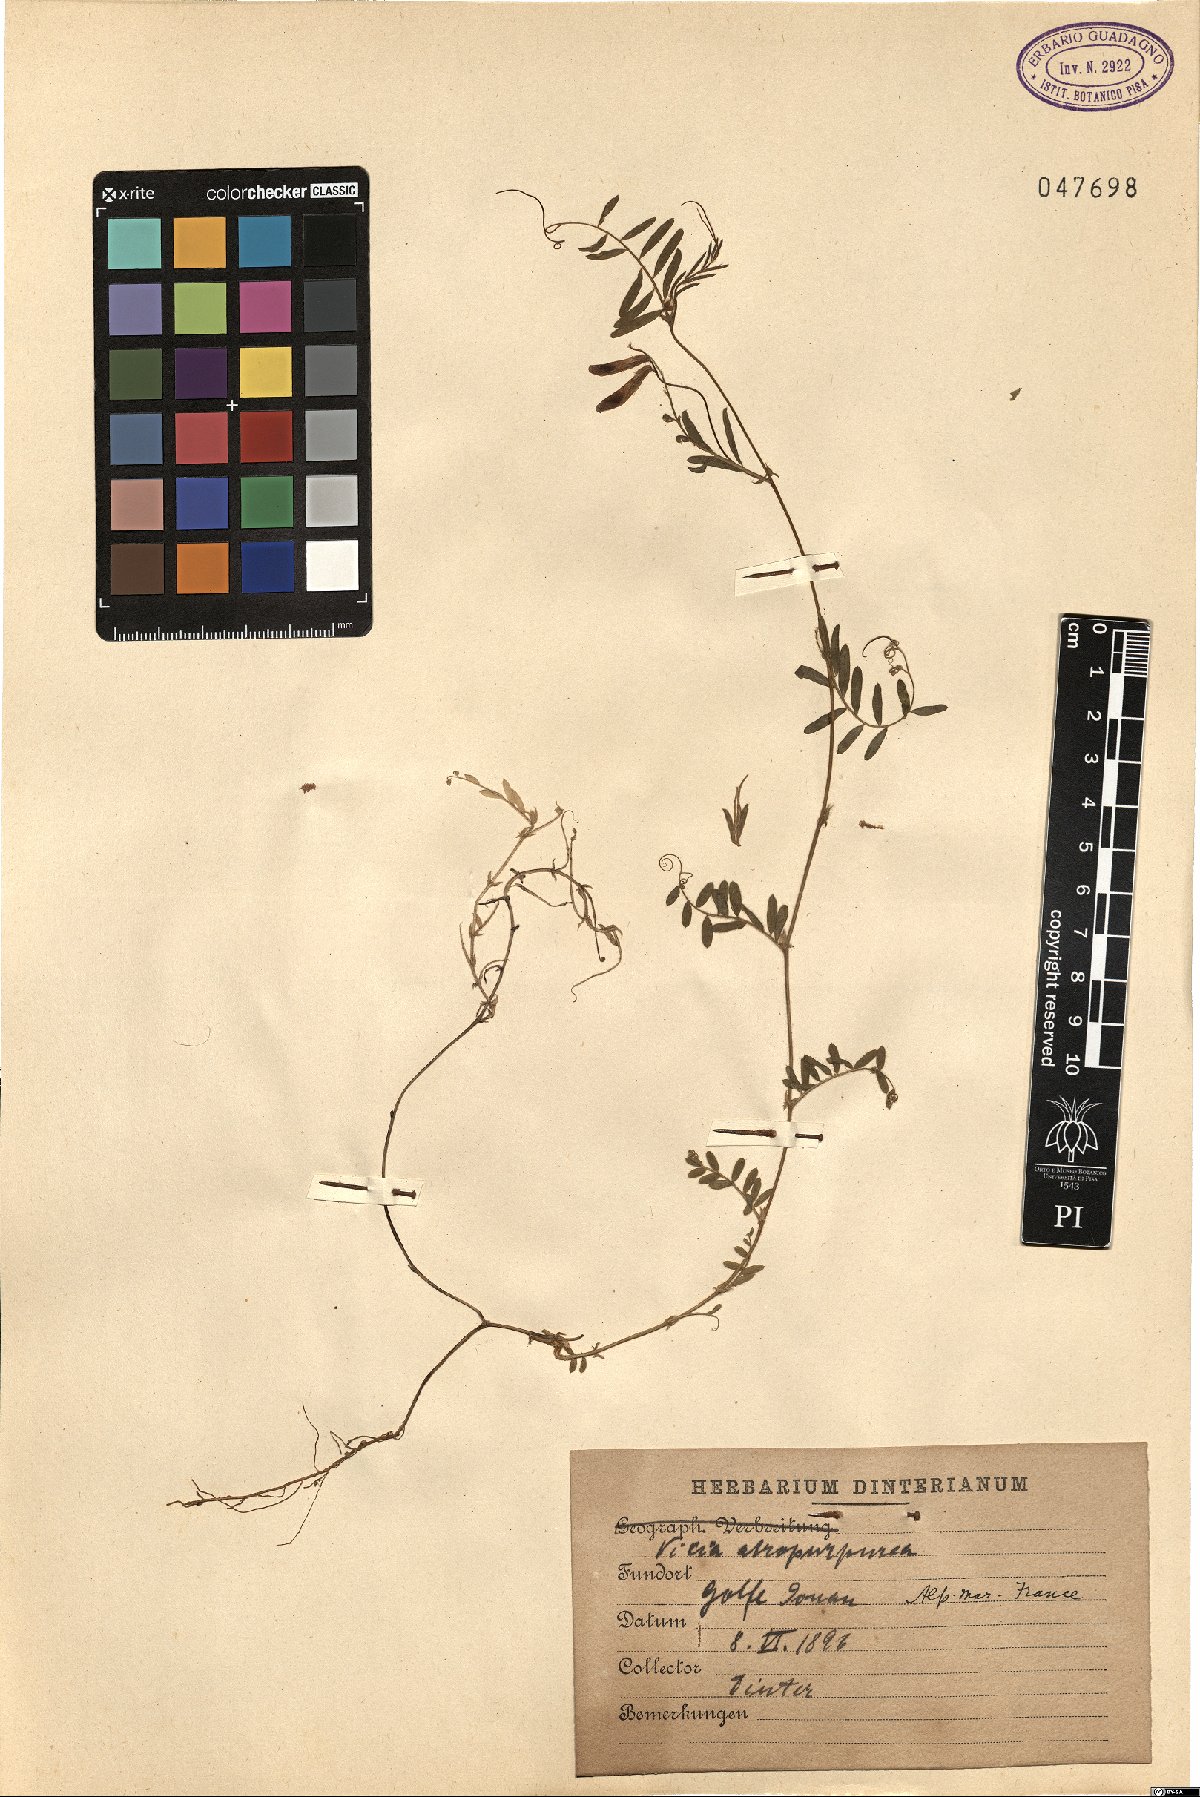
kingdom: Plantae
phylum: Tracheophyta
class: Magnoliopsida
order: Fabales
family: Fabaceae
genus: Vicia
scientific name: Vicia benghalensis
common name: Purple vetch
